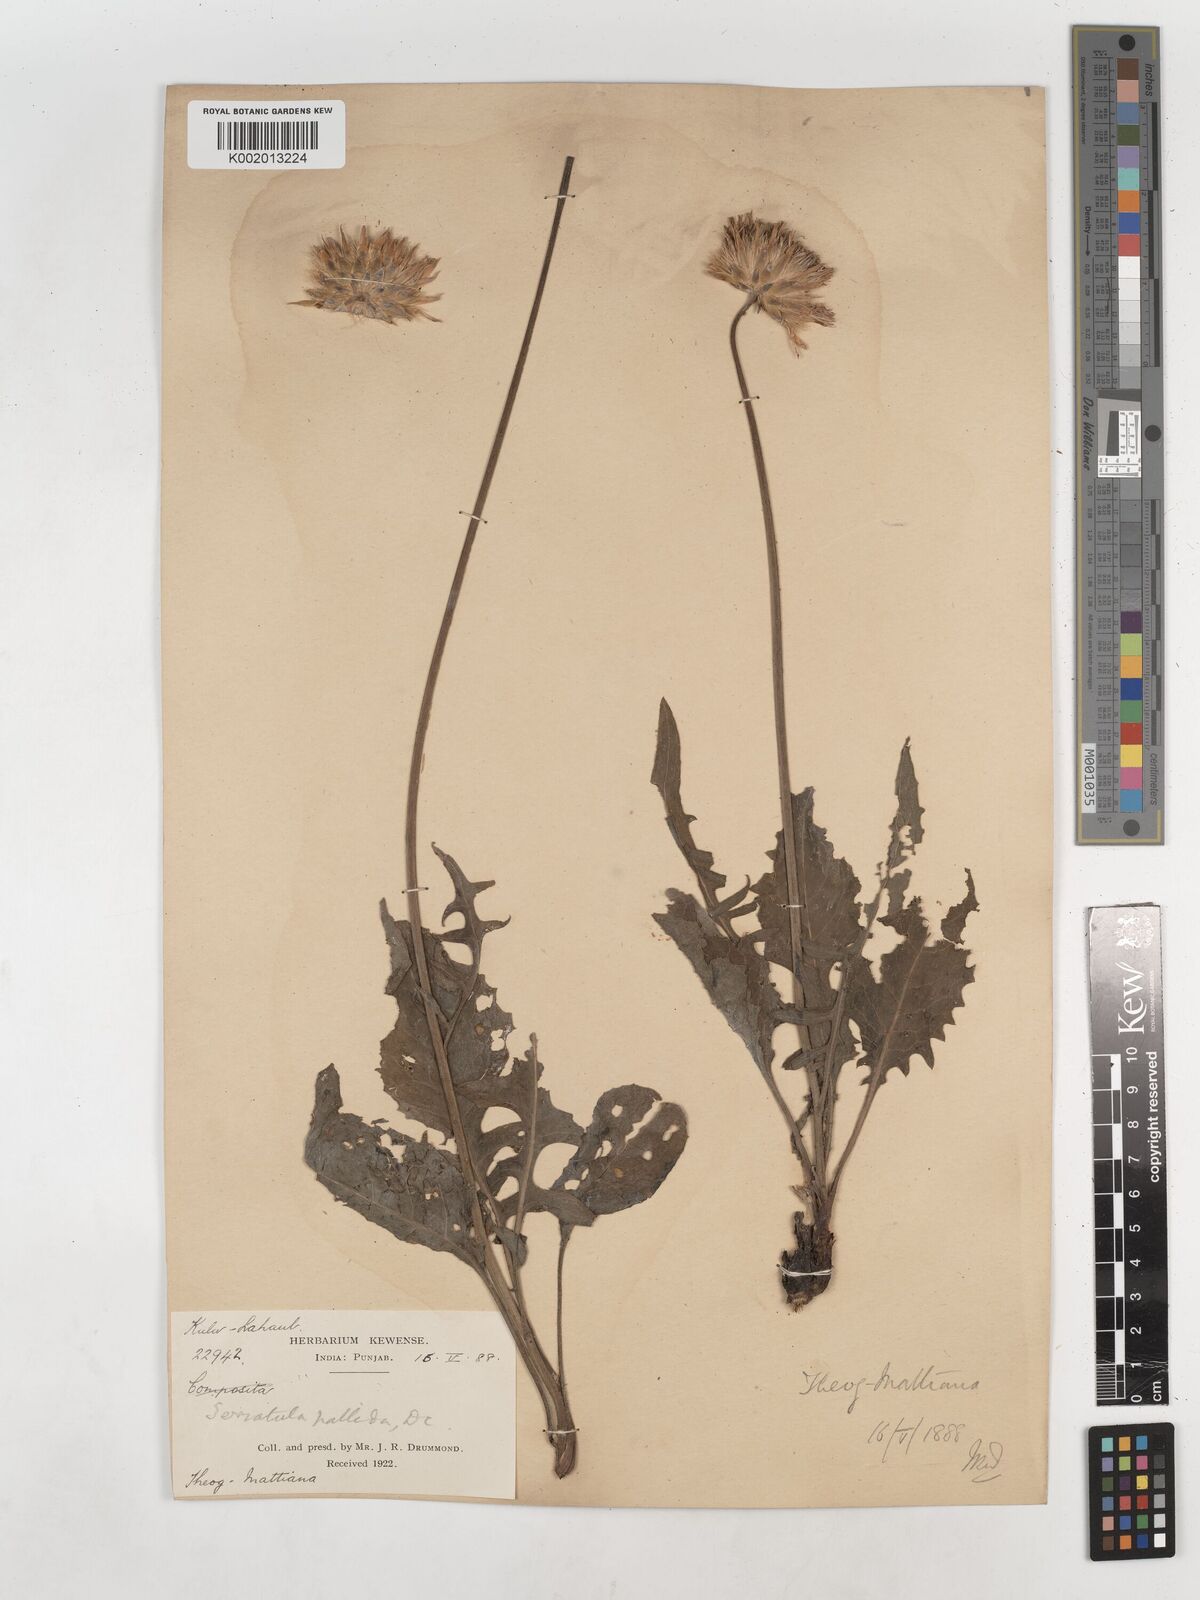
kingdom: Plantae
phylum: Tracheophyta
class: Magnoliopsida
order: Asterales
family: Asteraceae
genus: Klasea
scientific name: Klasea pallida
